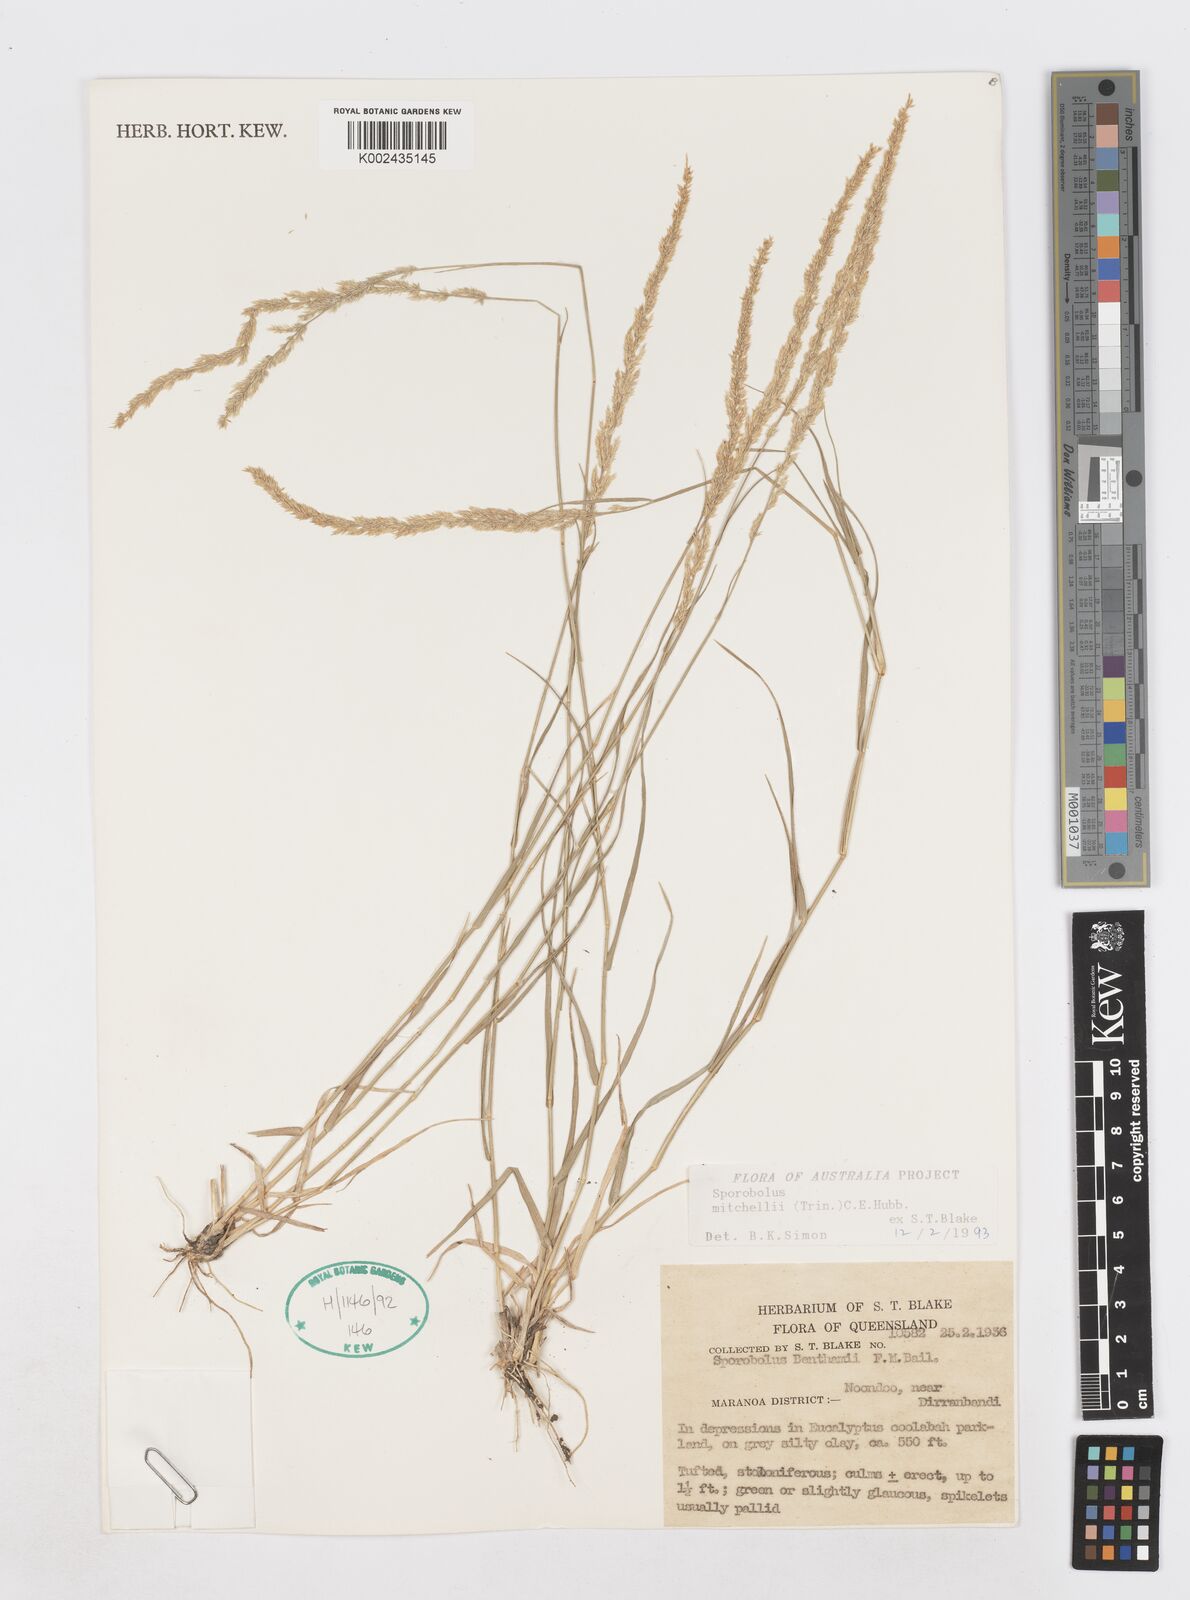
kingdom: Plantae
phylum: Tracheophyta
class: Liliopsida
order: Poales
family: Poaceae
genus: Sporobolus
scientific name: Sporobolus mitchellii
